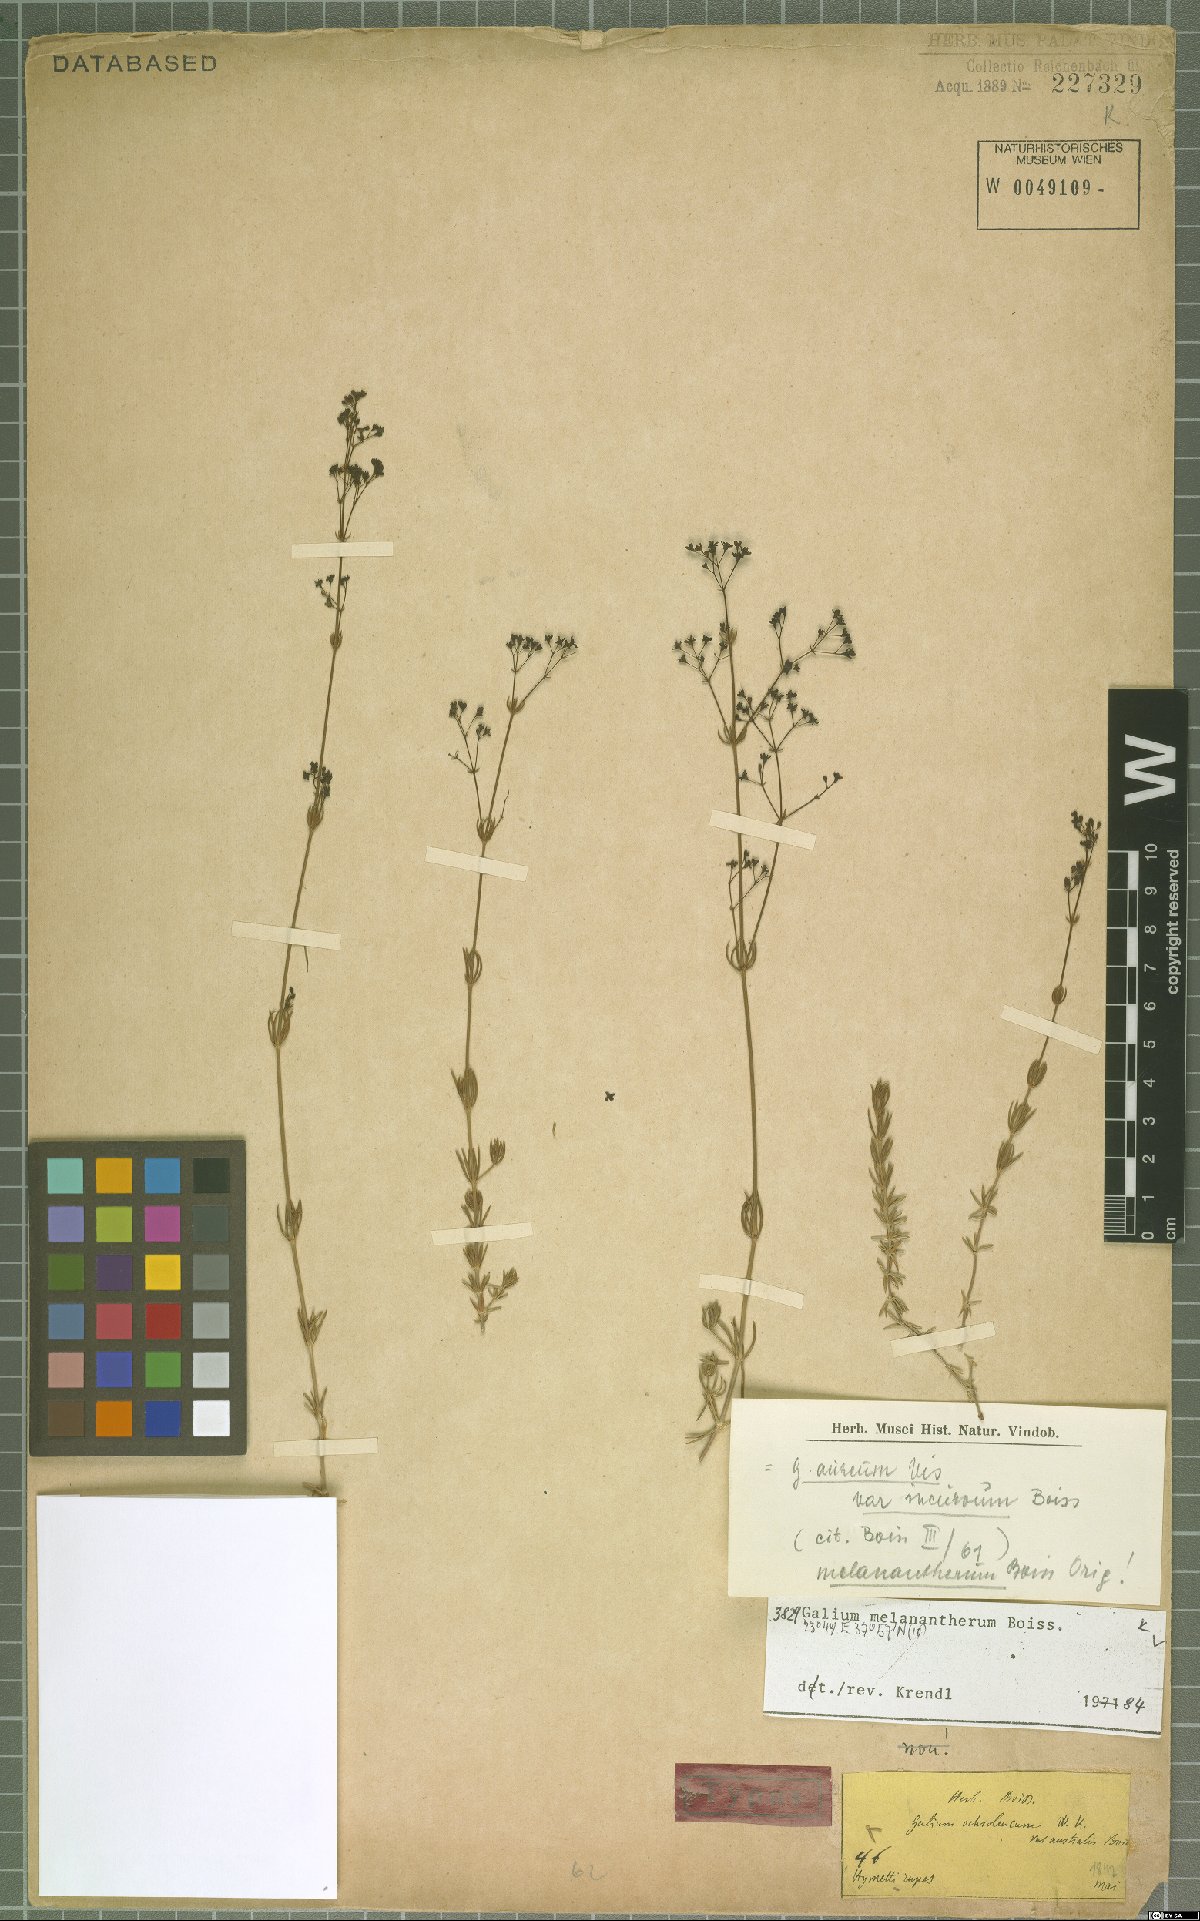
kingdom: Plantae
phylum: Tracheophyta
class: Magnoliopsida
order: Gentianales
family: Rubiaceae
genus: Galium
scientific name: Galium melanantherum
